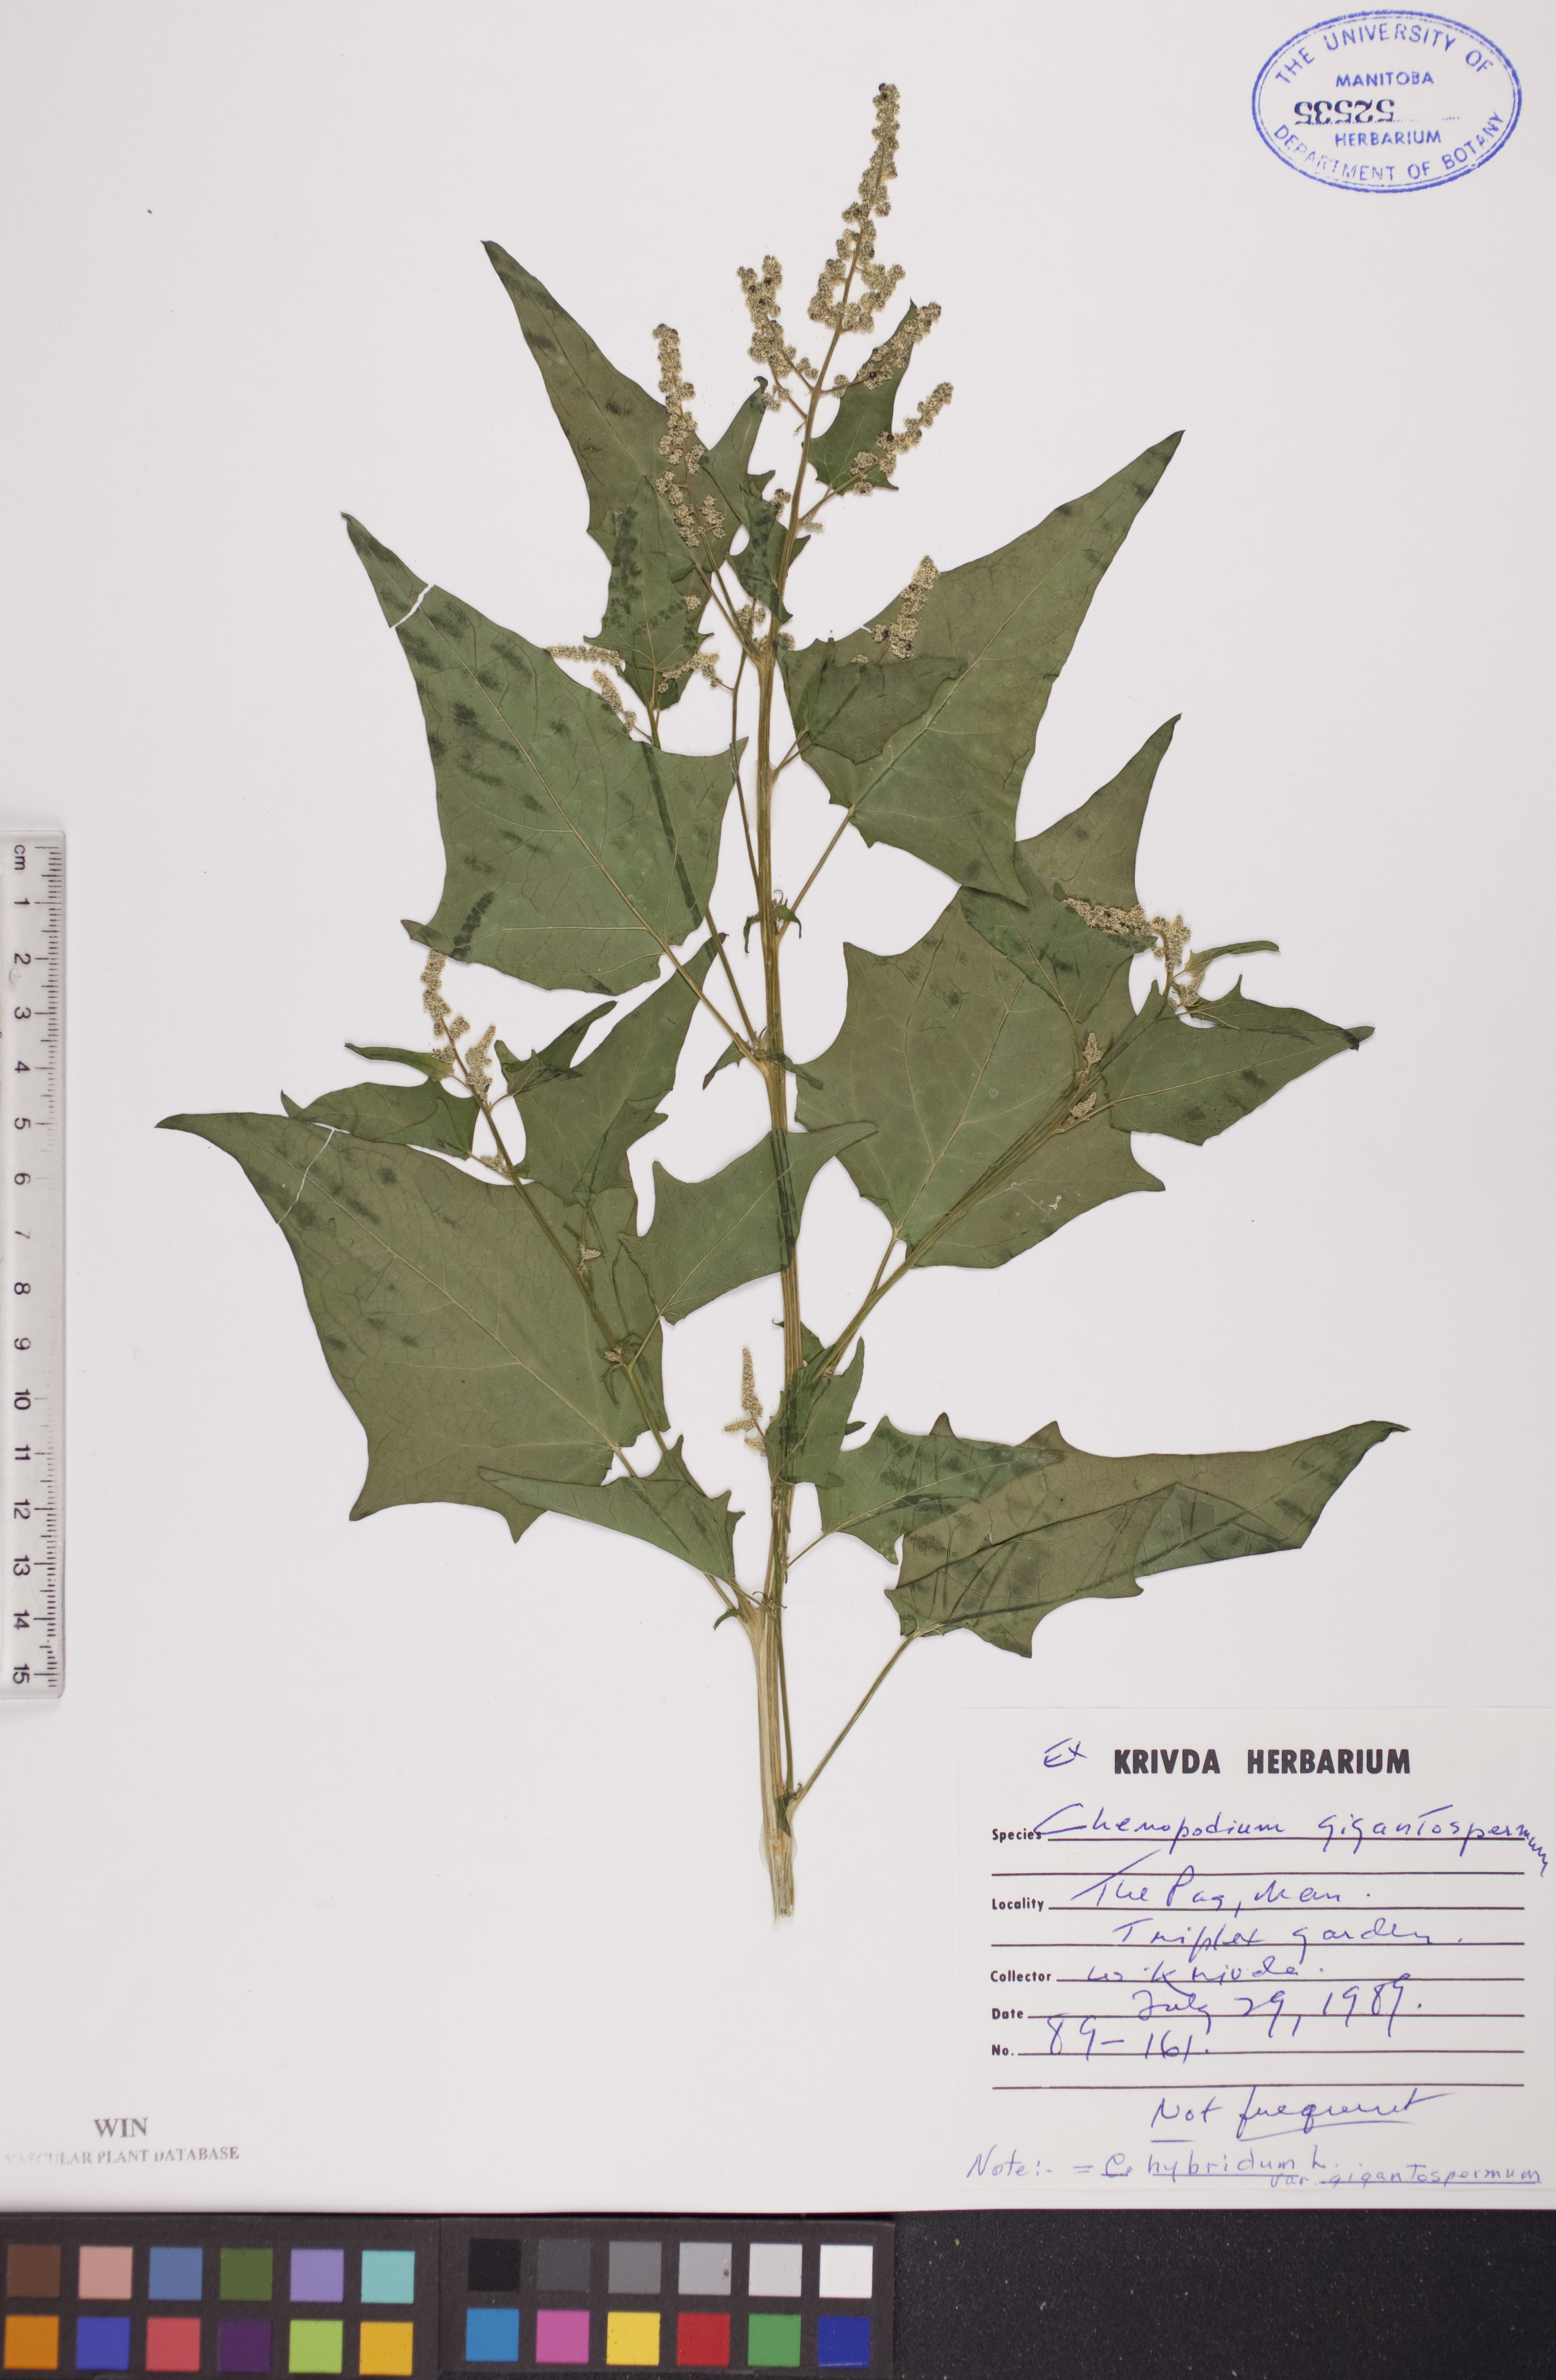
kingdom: Plantae
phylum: Tracheophyta
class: Magnoliopsida
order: Caryophyllales
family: Amaranthaceae
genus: Chenopodiastrum
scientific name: Chenopodiastrum simplex
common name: Large-seed goosefoot
